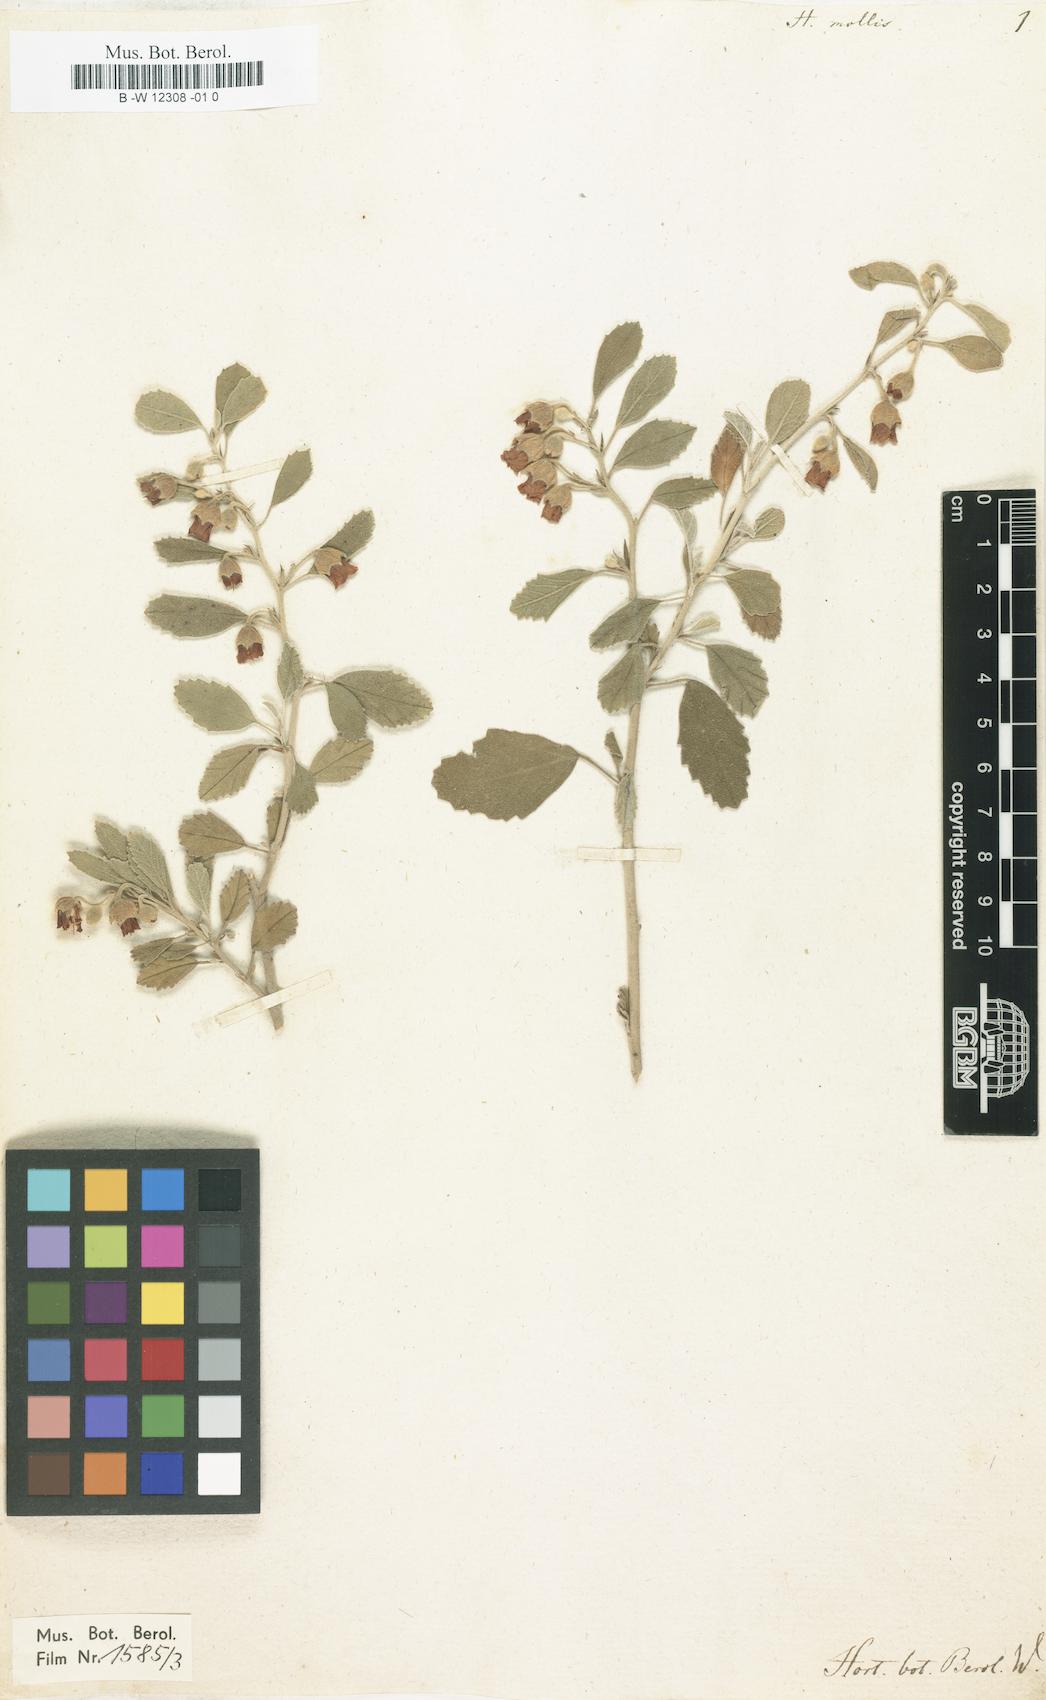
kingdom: Plantae
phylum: Tracheophyta
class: Magnoliopsida
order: Malvales
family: Malvaceae
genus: Hermannia
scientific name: Hermannia incana
